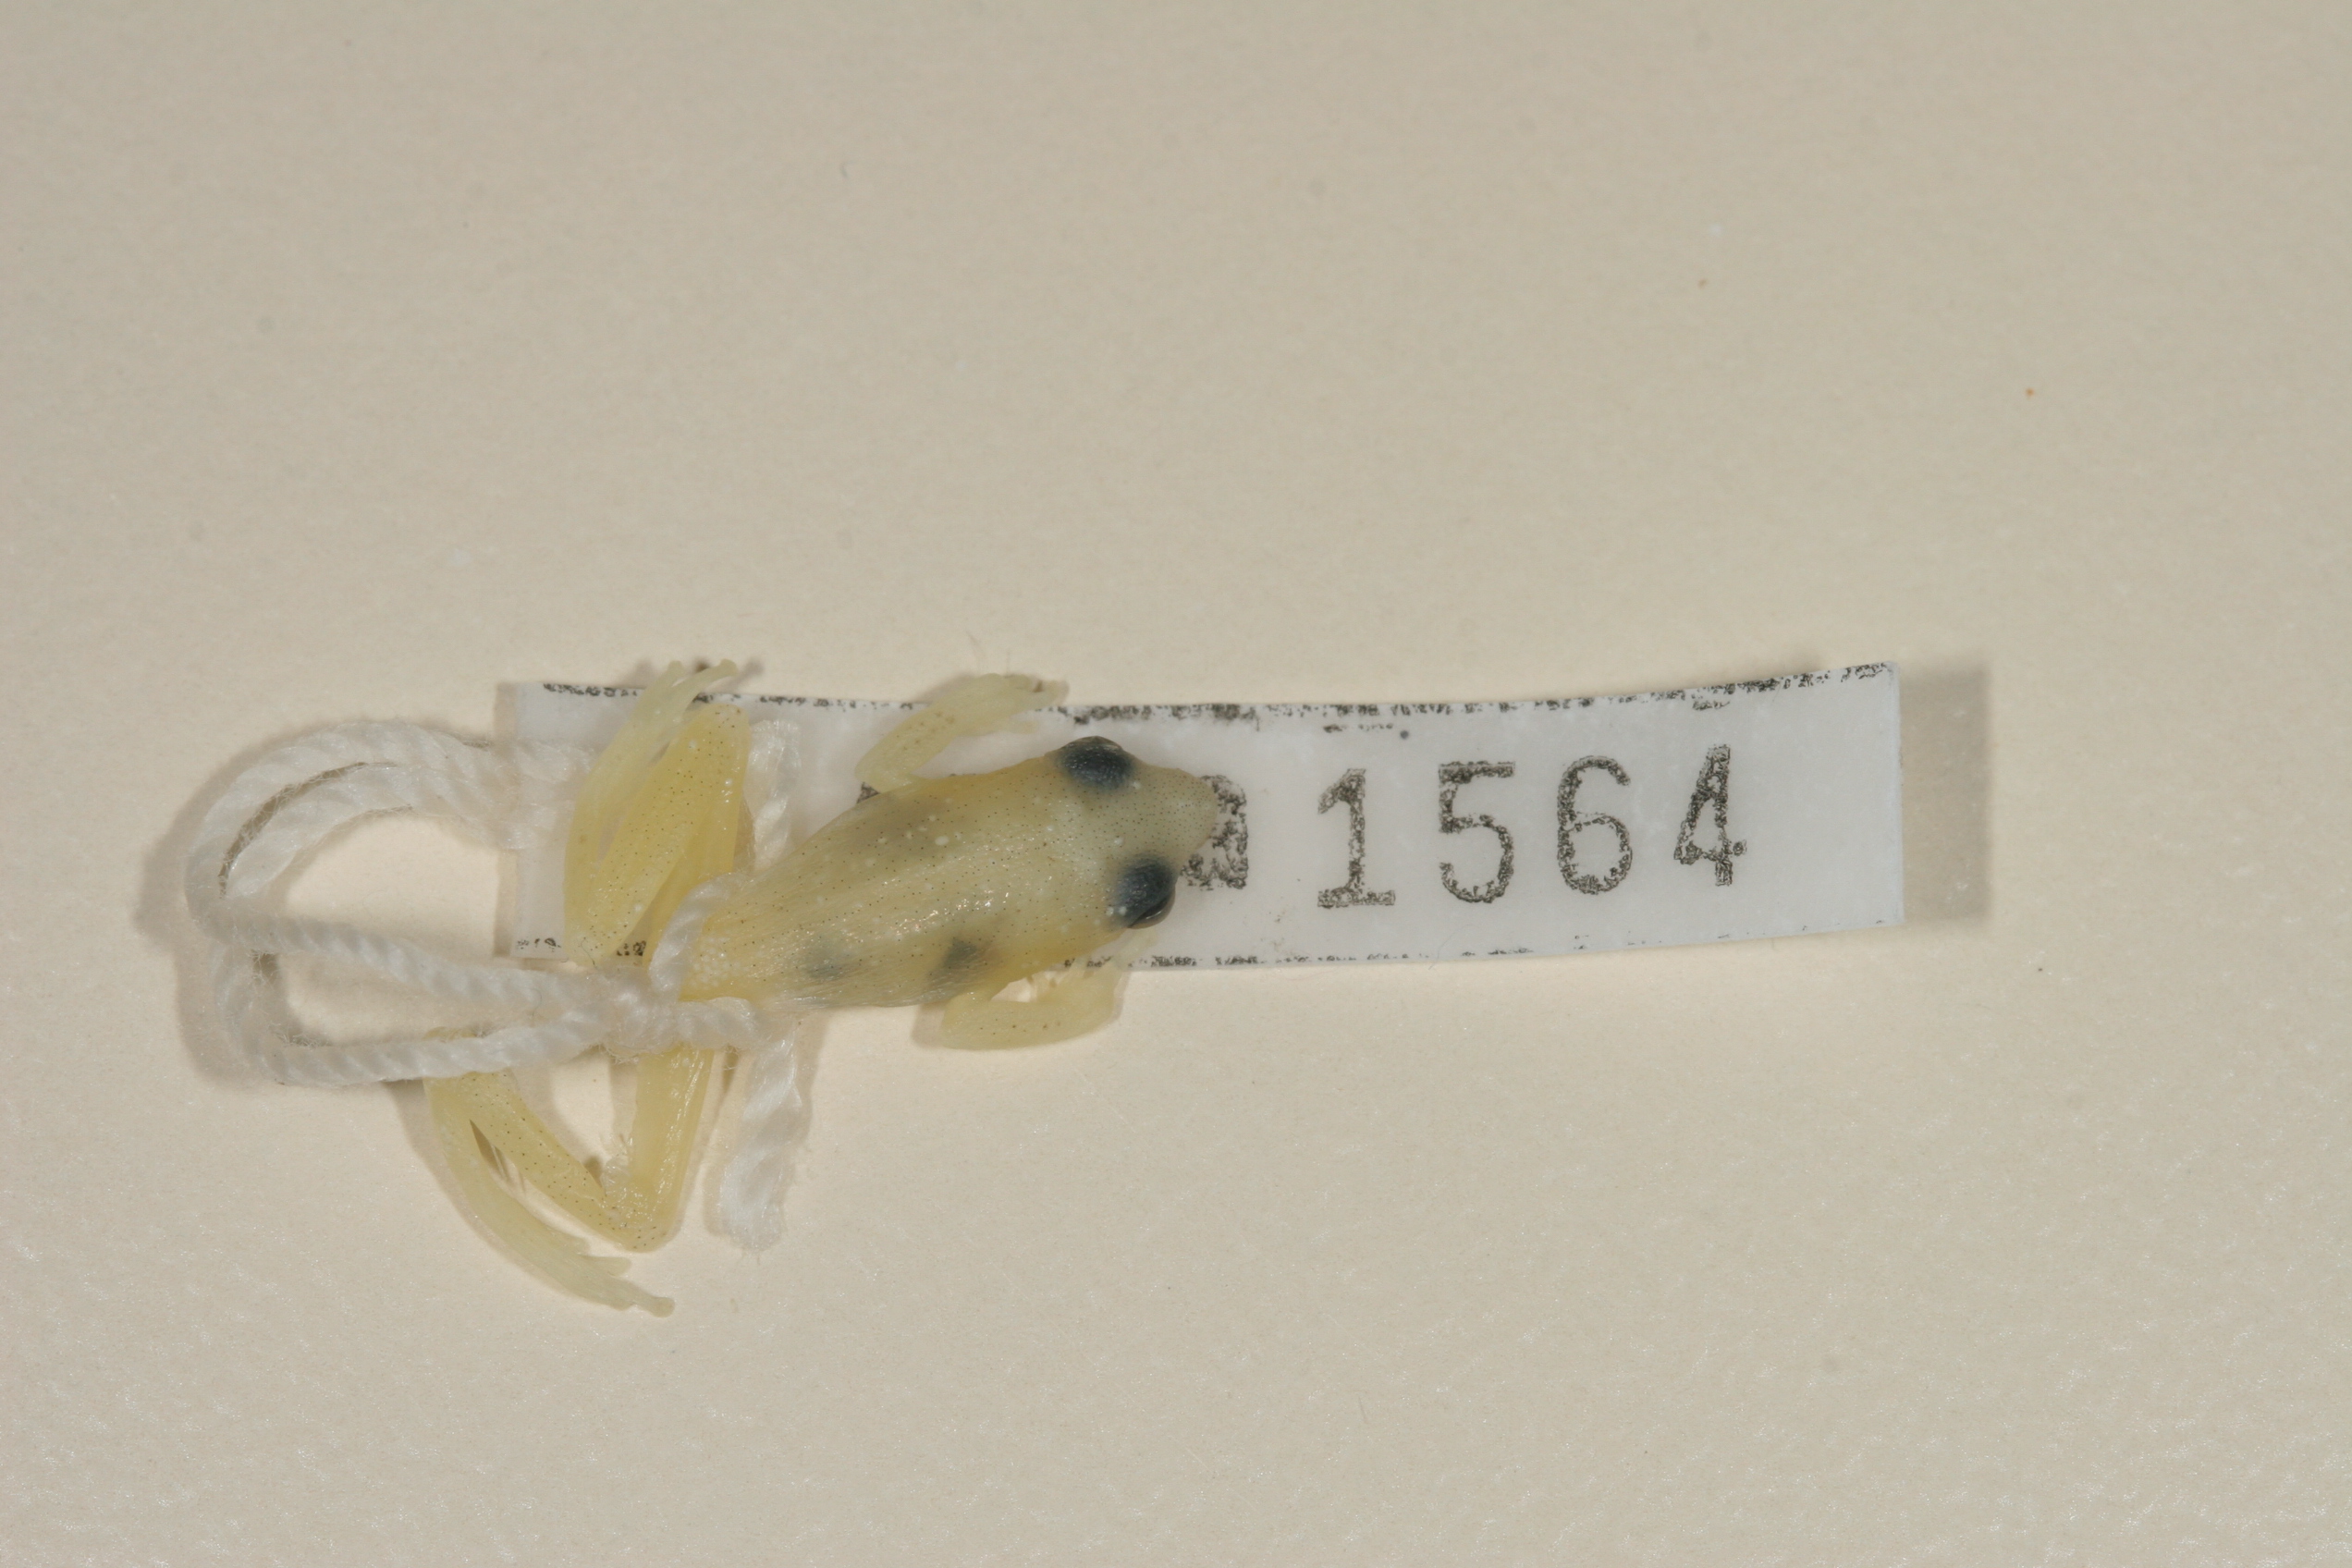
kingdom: Animalia
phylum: Chordata
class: Amphibia
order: Anura
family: Hyperoliidae
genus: Hyperolius
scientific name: Hyperolius nasutus
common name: Sharp-and-blunt-snouted sedge frog
